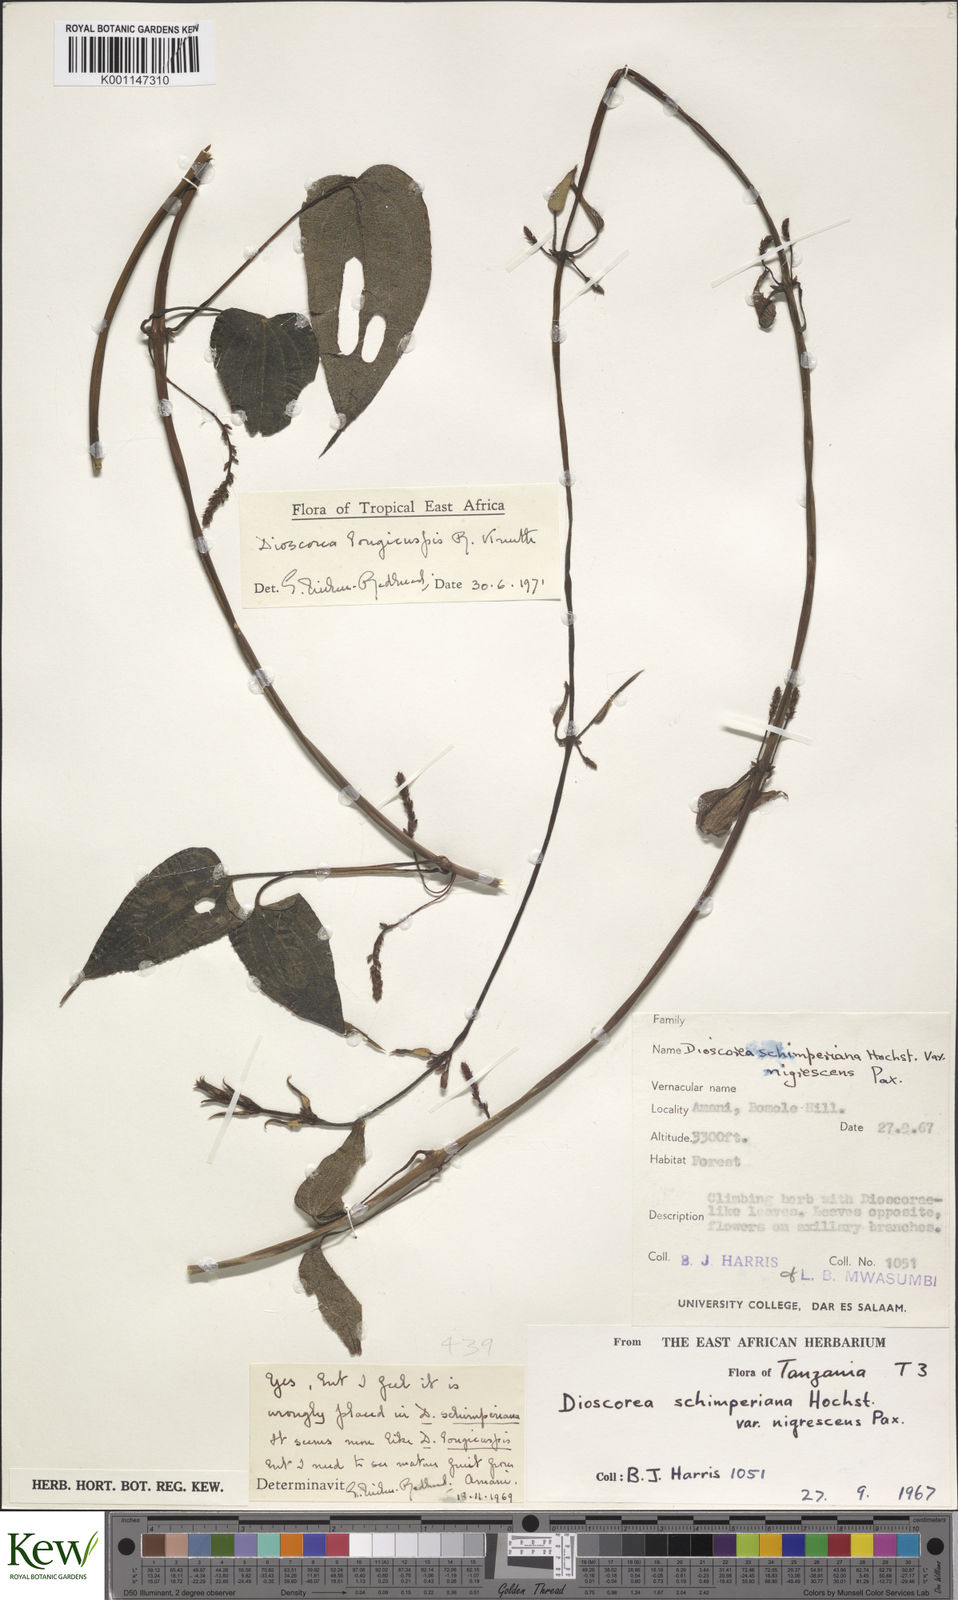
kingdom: Plantae
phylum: Tracheophyta
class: Liliopsida
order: Dioscoreales
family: Dioscoreaceae
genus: Dioscorea
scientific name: Dioscorea longicuspis
